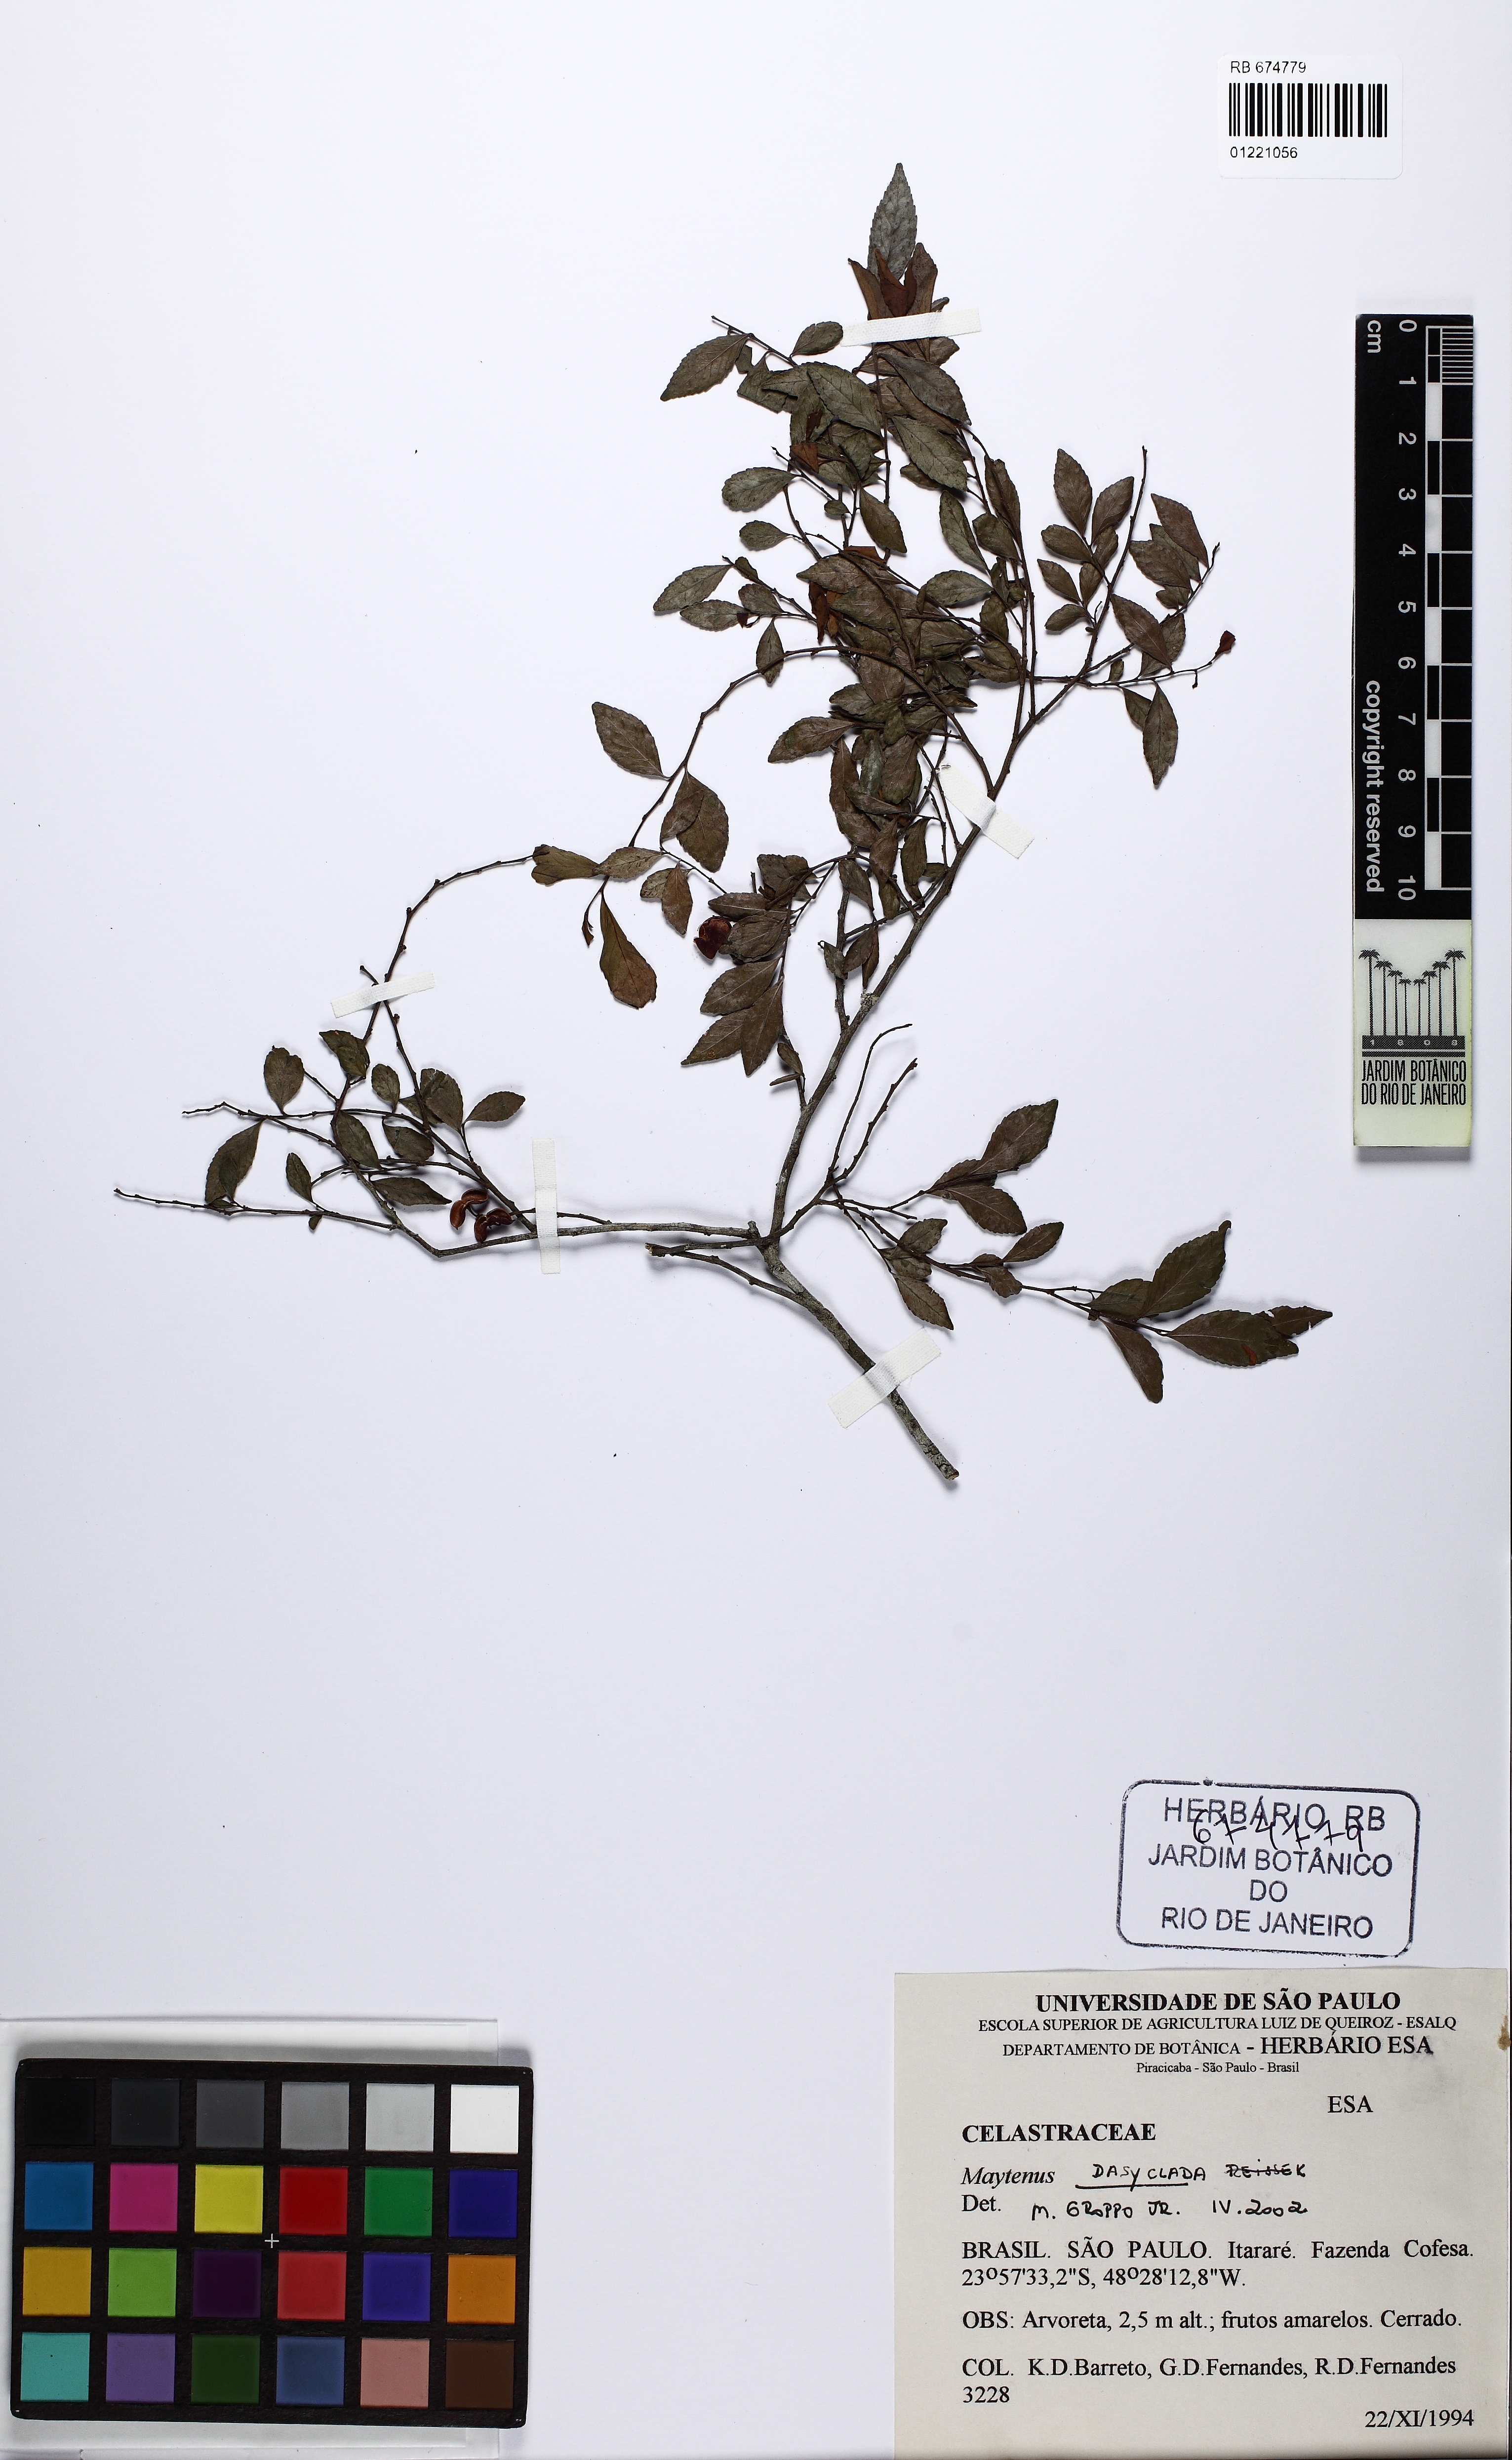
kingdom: Plantae
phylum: Tracheophyta
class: Magnoliopsida
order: Celastrales
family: Celastraceae
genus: Monteverdia
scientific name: Monteverdia dasyclados
